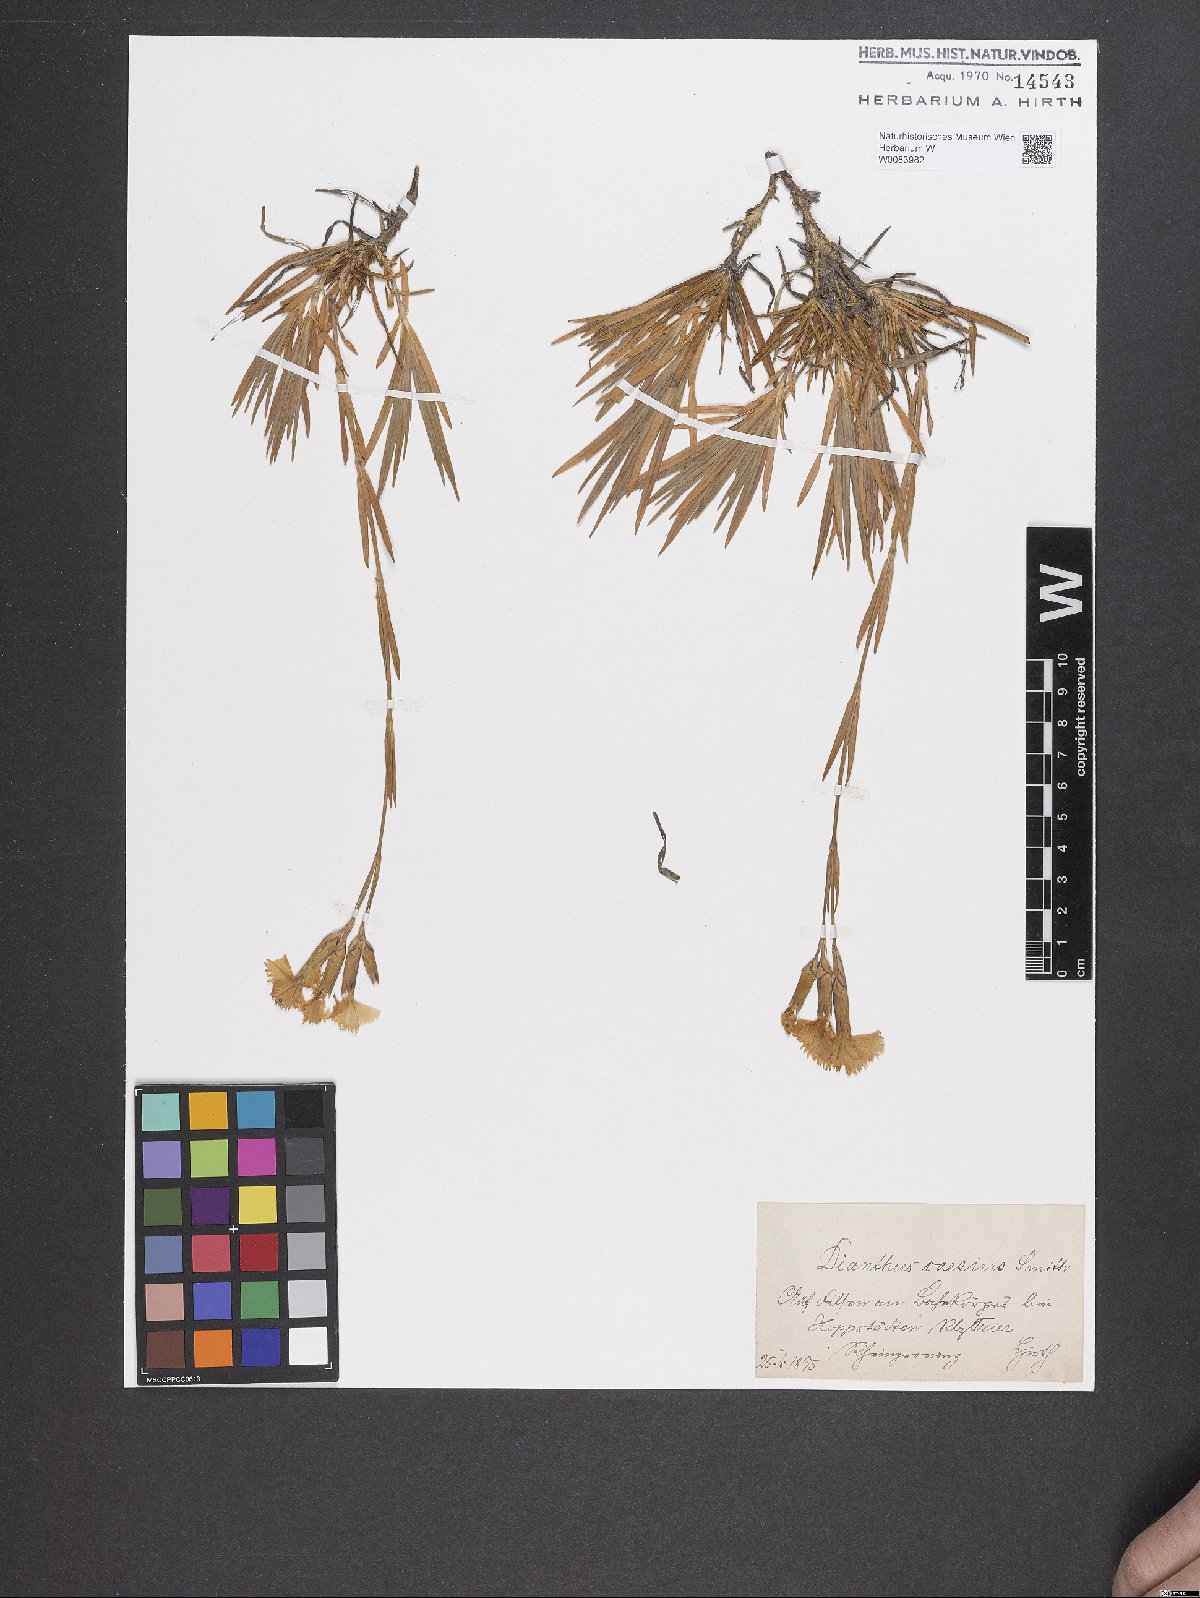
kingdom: Plantae
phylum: Tracheophyta
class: Magnoliopsida
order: Caryophyllales
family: Caryophyllaceae
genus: Dianthus
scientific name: Dianthus gratianopolitanus
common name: Cheddar pink
